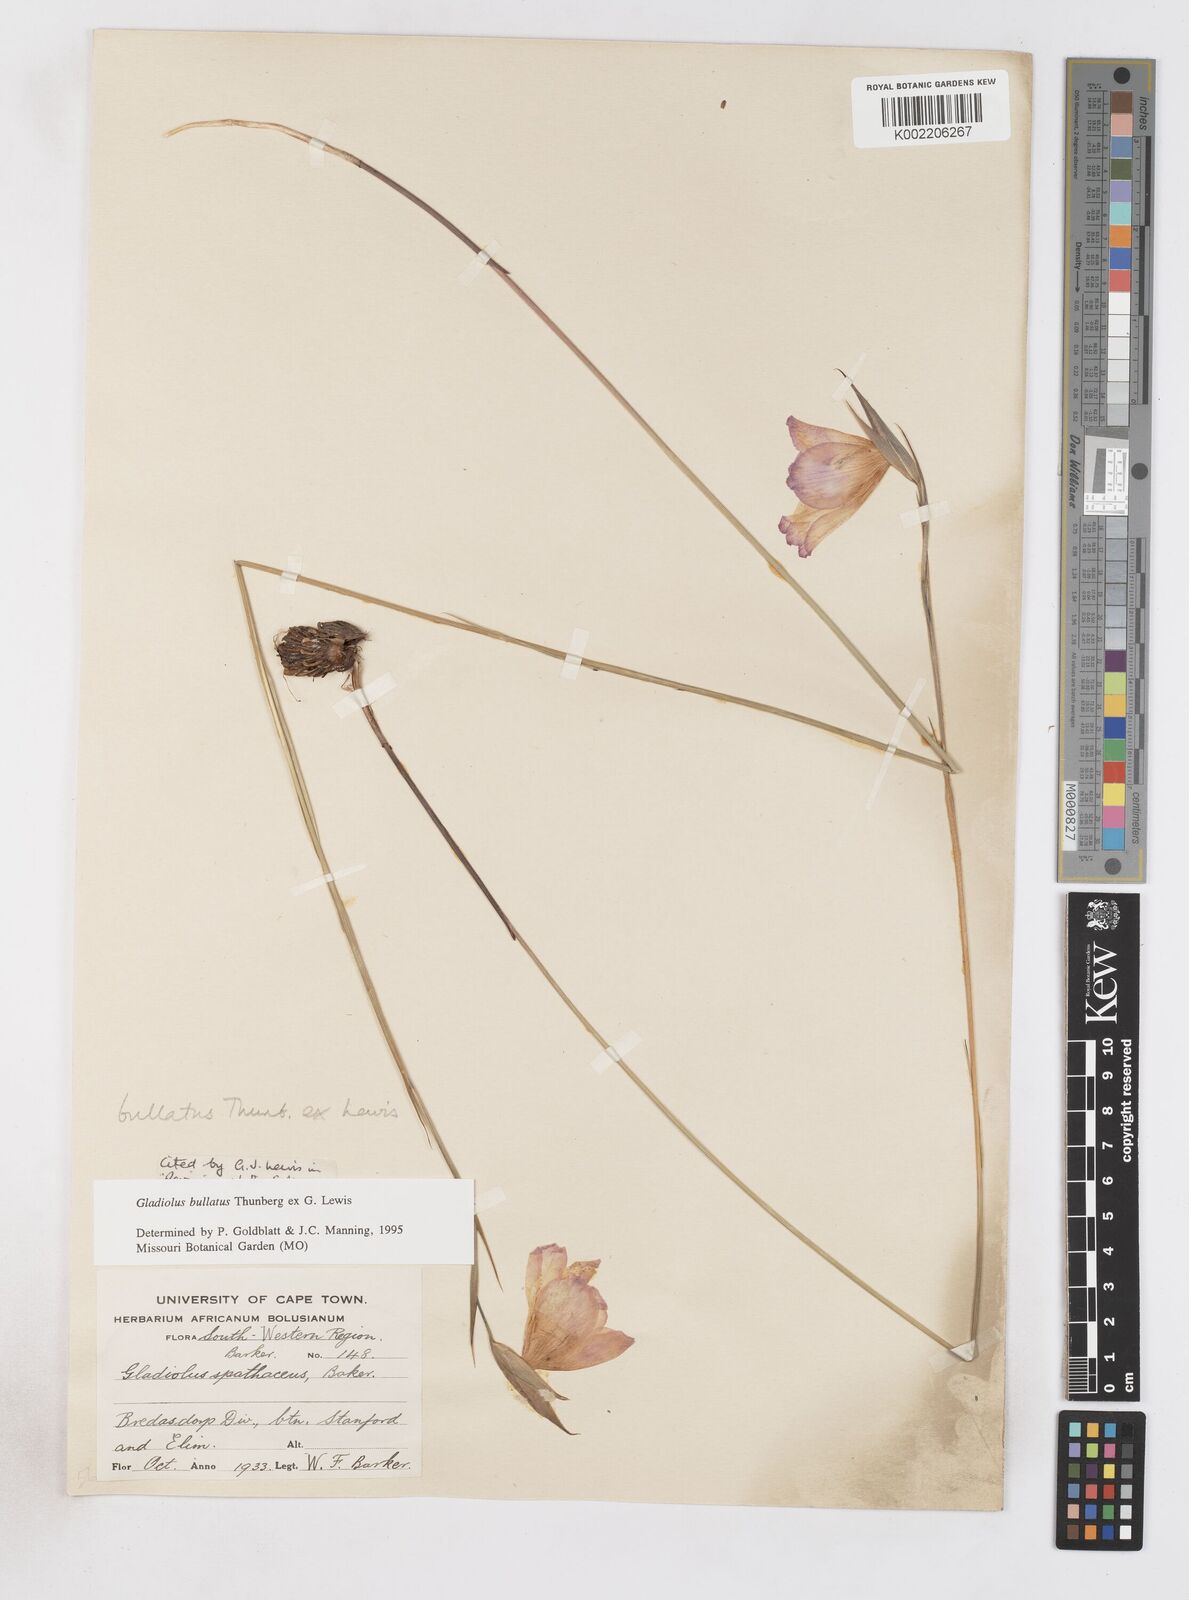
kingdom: Plantae
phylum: Tracheophyta
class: Liliopsida
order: Asparagales
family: Iridaceae
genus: Gladiolus
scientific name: Gladiolus bullatus
